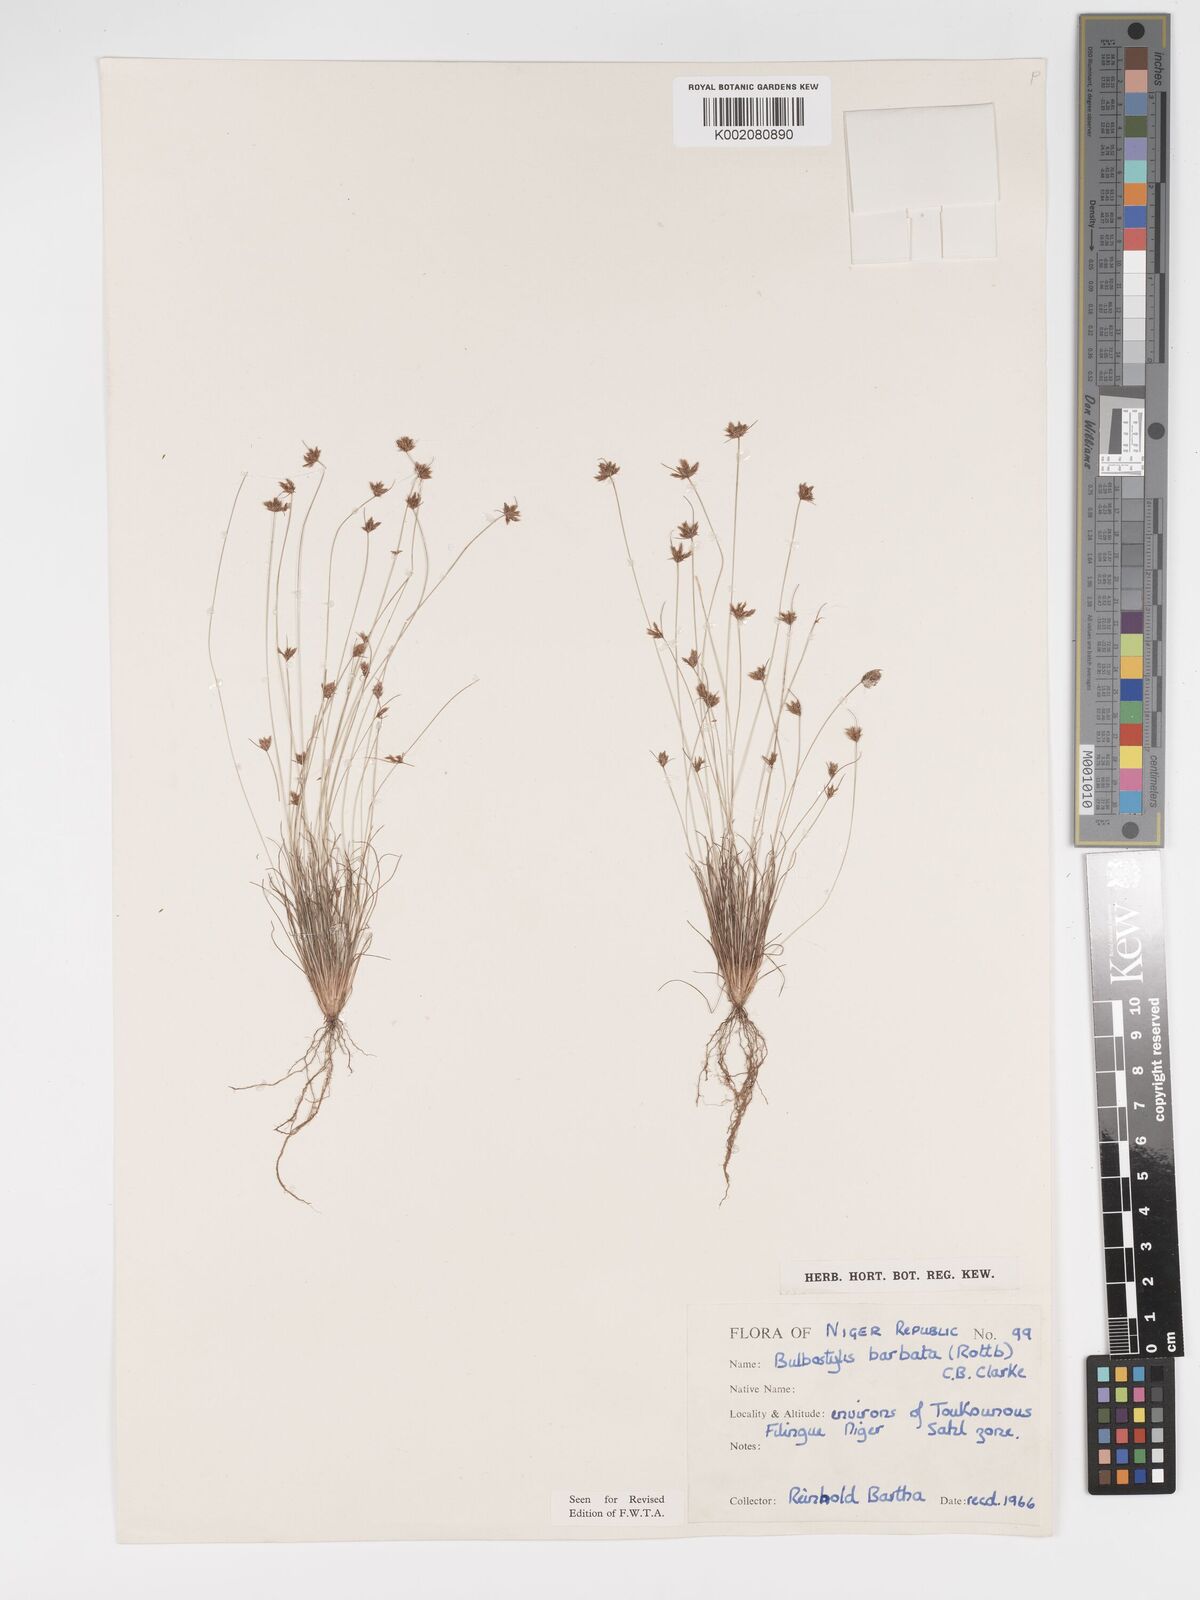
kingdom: Plantae
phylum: Tracheophyta
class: Liliopsida
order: Poales
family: Cyperaceae
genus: Bulbostylis
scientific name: Bulbostylis barbata
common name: Watergrass
